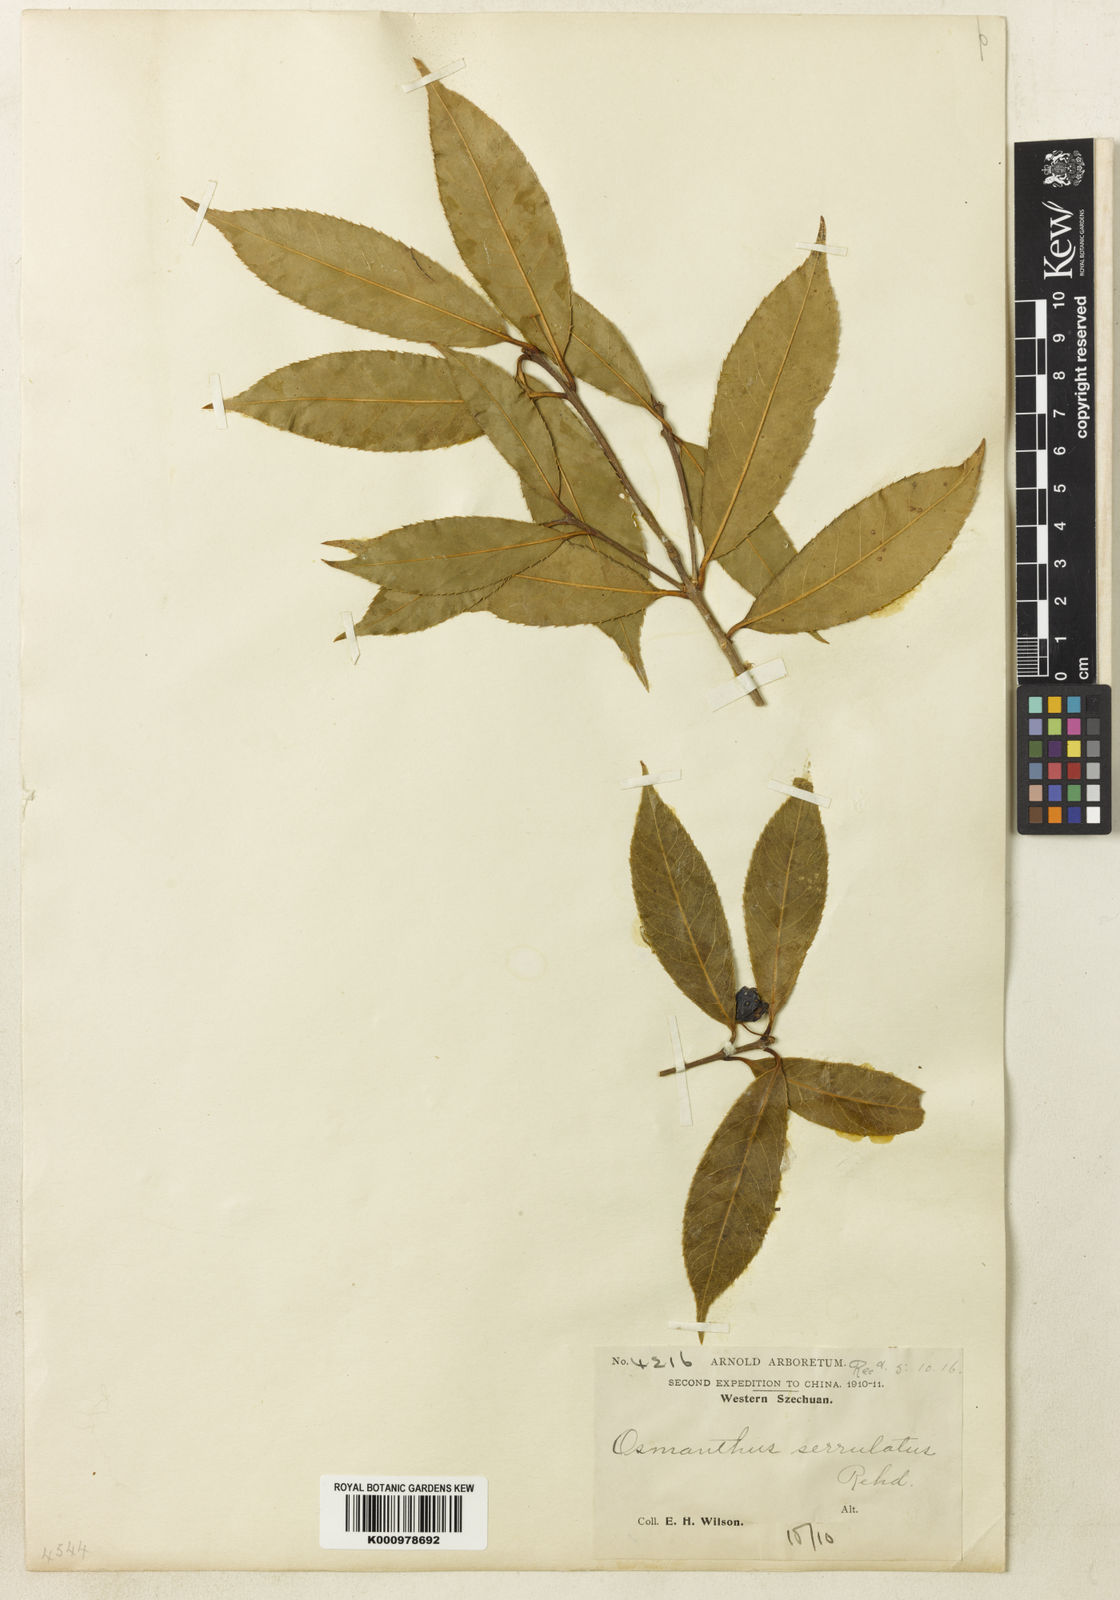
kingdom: Plantae
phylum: Tracheophyta
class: Magnoliopsida
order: Lamiales
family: Oleaceae
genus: Osmanthus
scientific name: Osmanthus serrulatus
